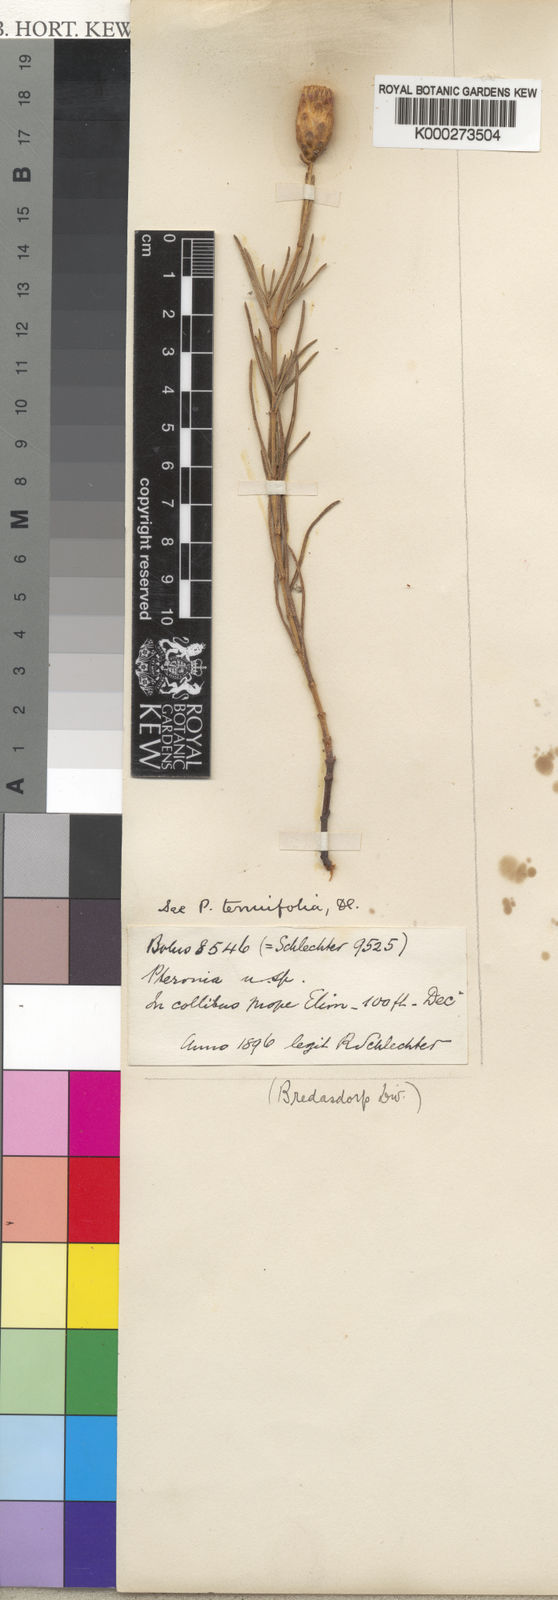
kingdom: Plantae
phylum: Tracheophyta
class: Magnoliopsida
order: Asterales
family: Asteraceae
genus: Pteronia
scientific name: Pteronia tenuifolia
